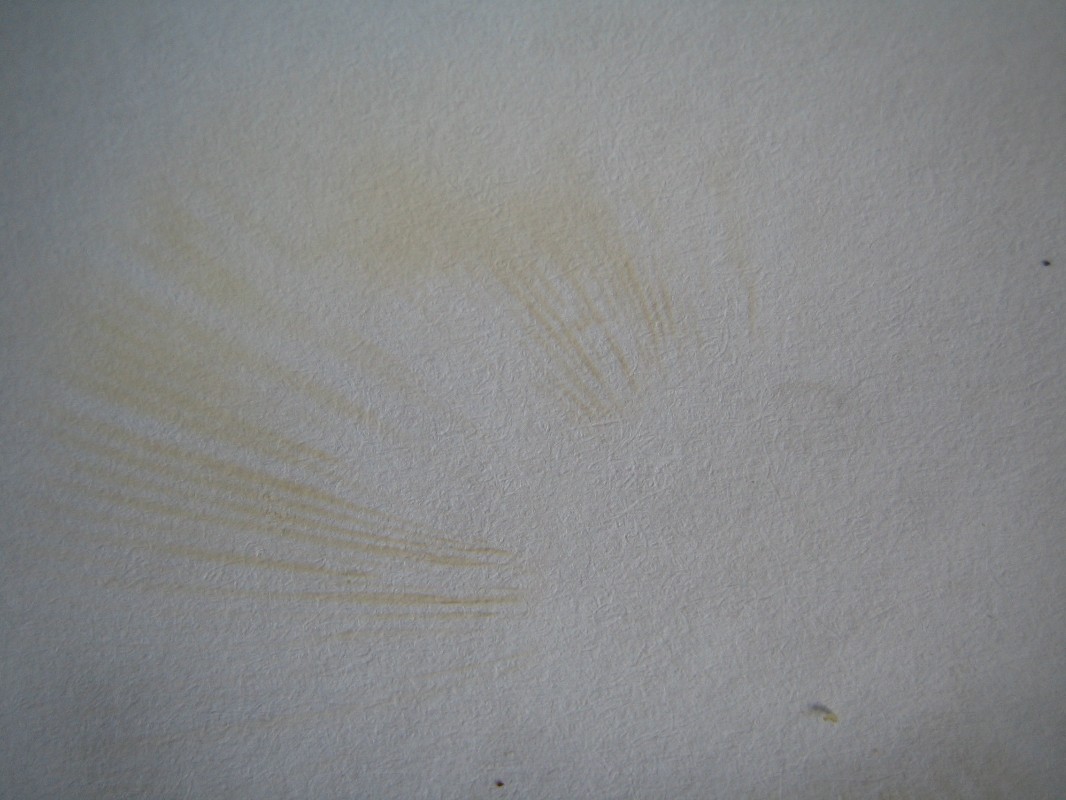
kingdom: Fungi
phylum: Basidiomycota
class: Agaricomycetes
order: Russulales
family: Russulaceae
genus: Russula
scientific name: Russula depallens
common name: falmende skørhat
